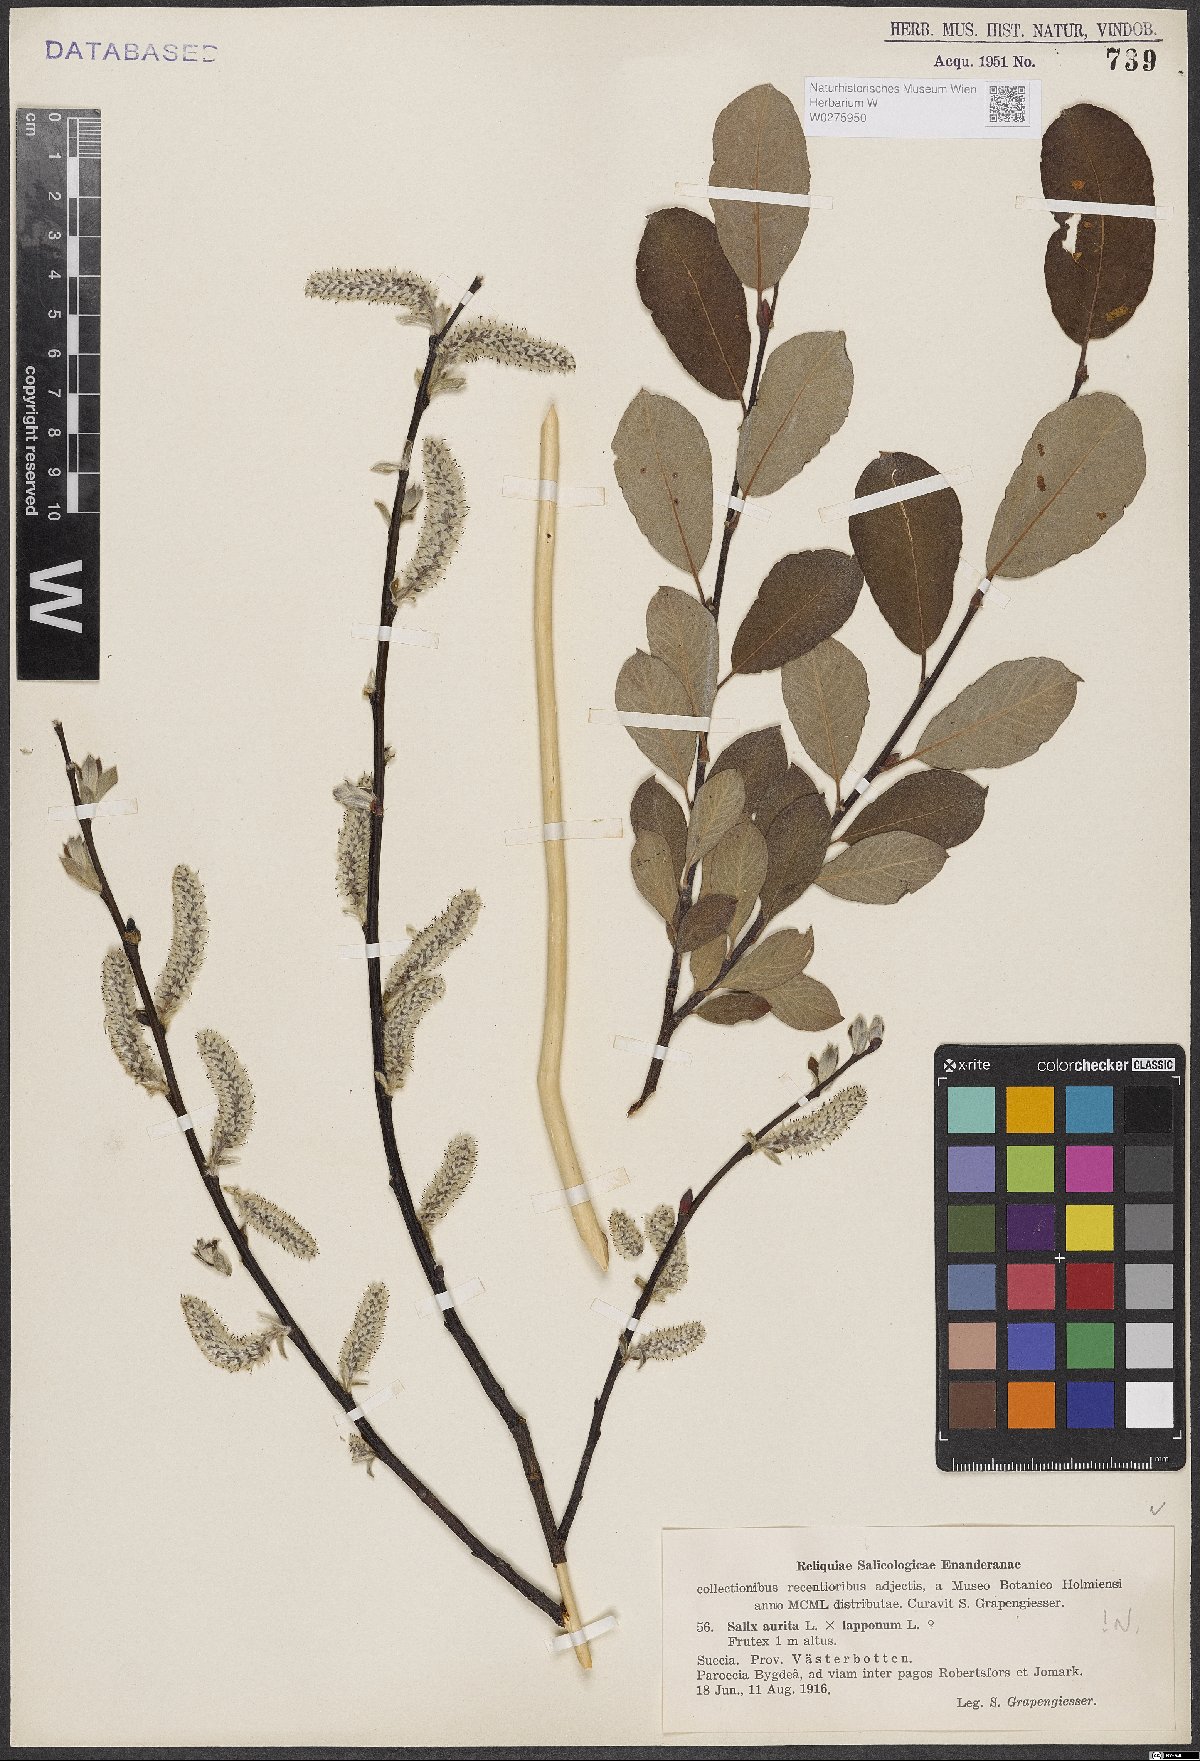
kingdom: Plantae
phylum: Tracheophyta
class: Magnoliopsida
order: Malpighiales
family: Salicaceae
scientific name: Salicaceae
